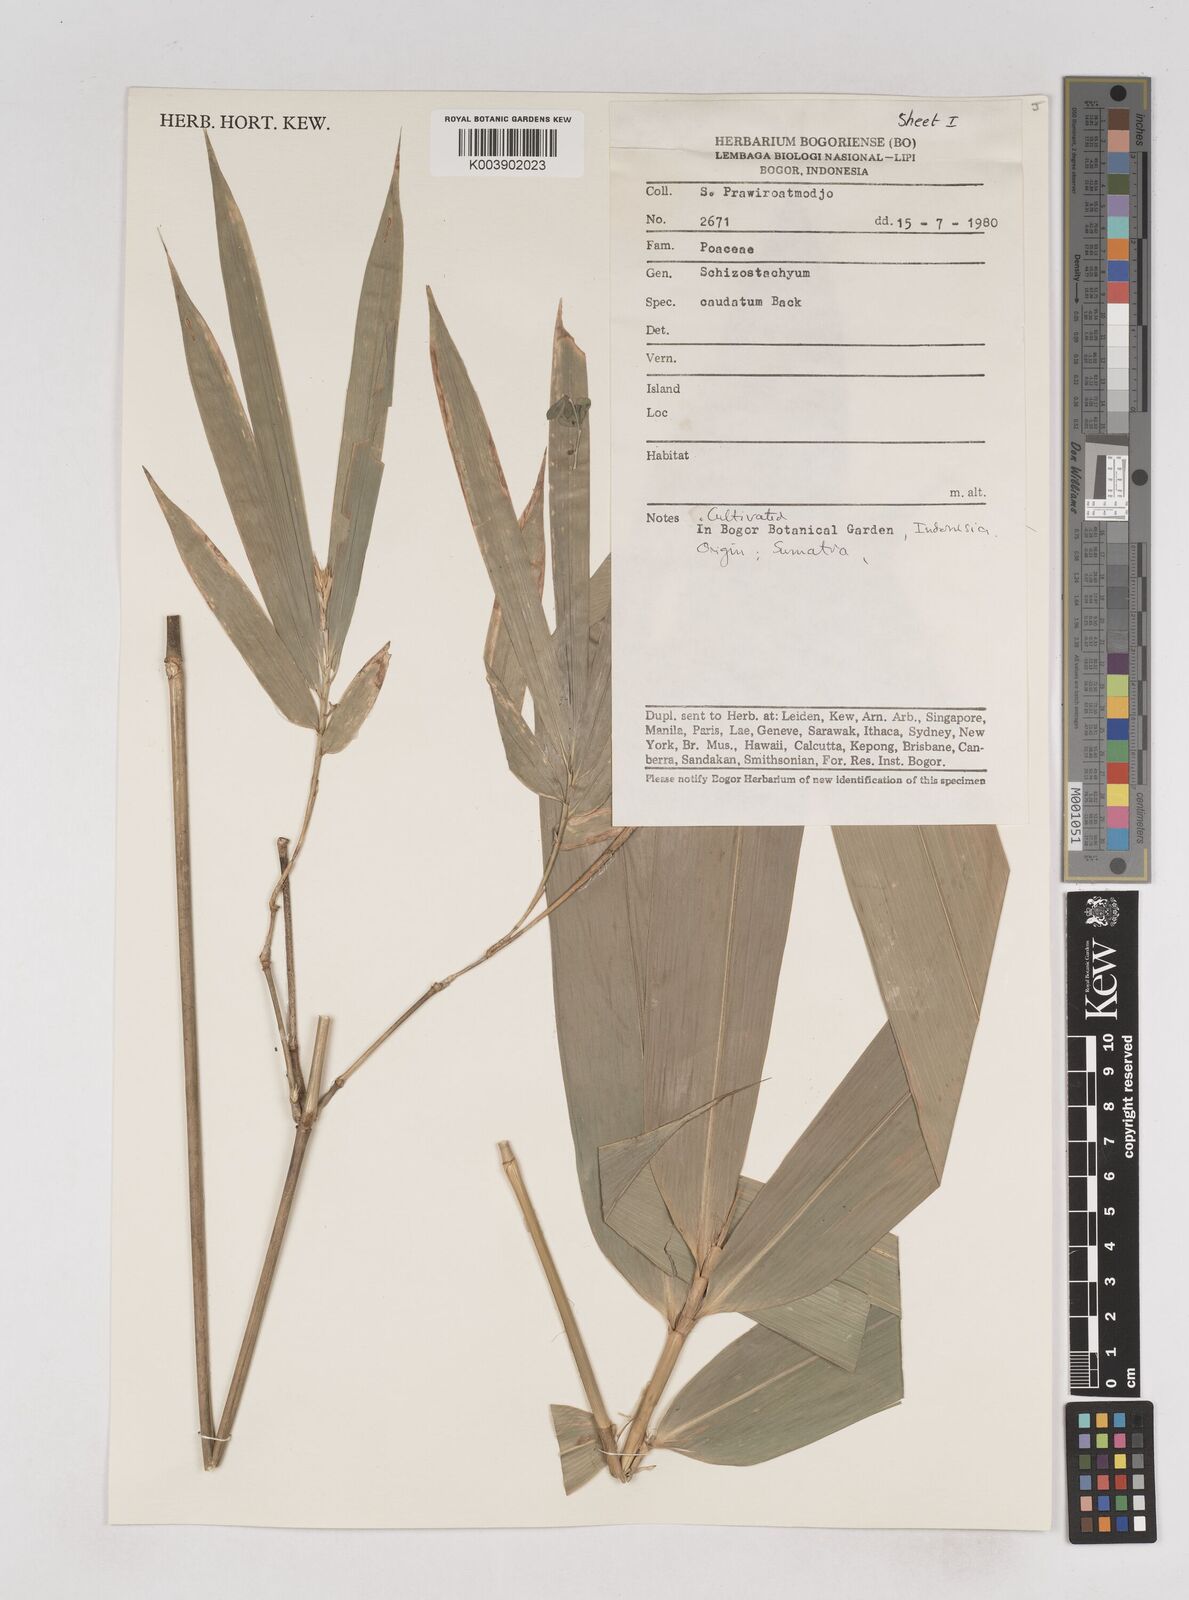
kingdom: Plantae
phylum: Tracheophyta
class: Liliopsida
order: Poales
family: Poaceae
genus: Schizostachyum
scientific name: Schizostachyum caudatum
